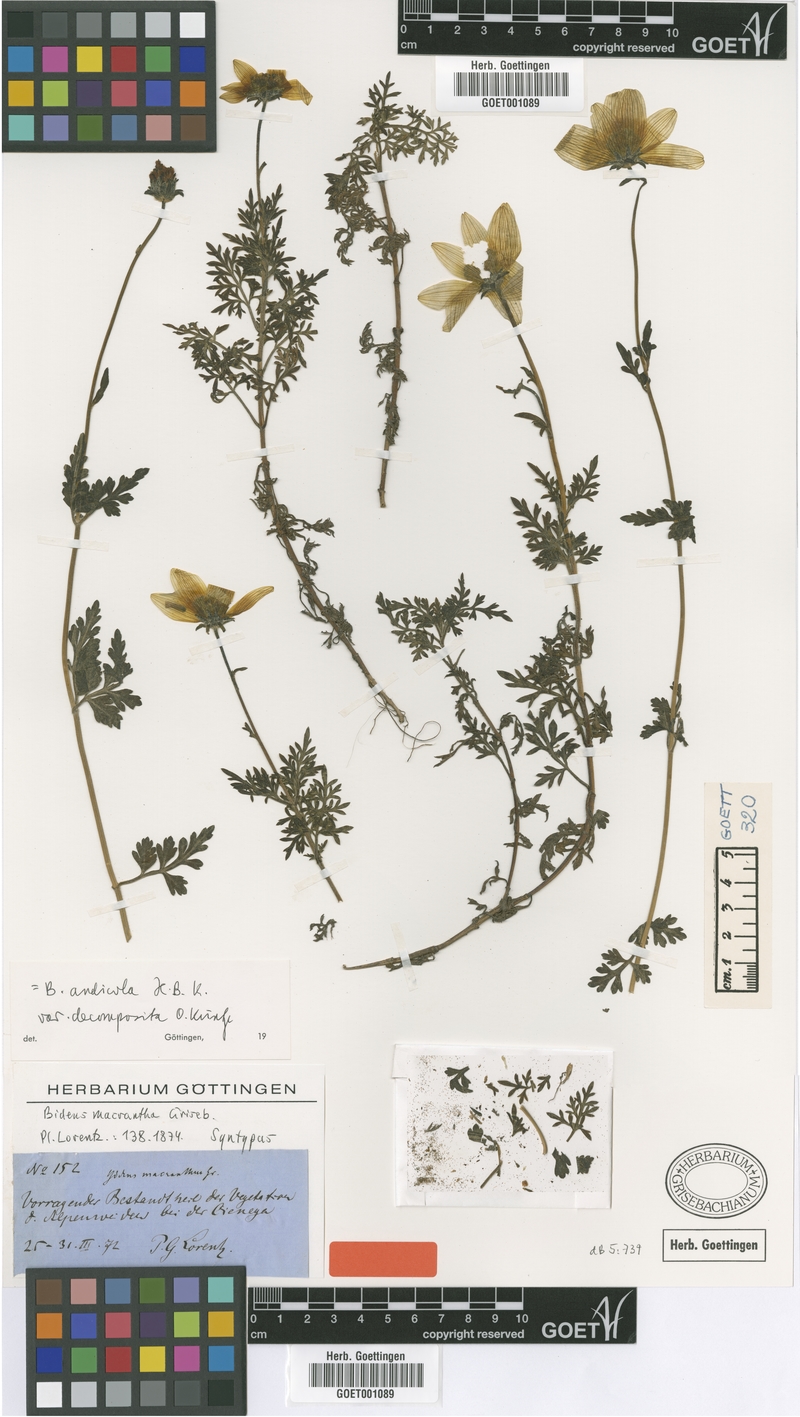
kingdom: Plantae
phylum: Tracheophyta
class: Magnoliopsida
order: Asterales
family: Asteraceae
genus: Bidens
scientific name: Bidens andicola
